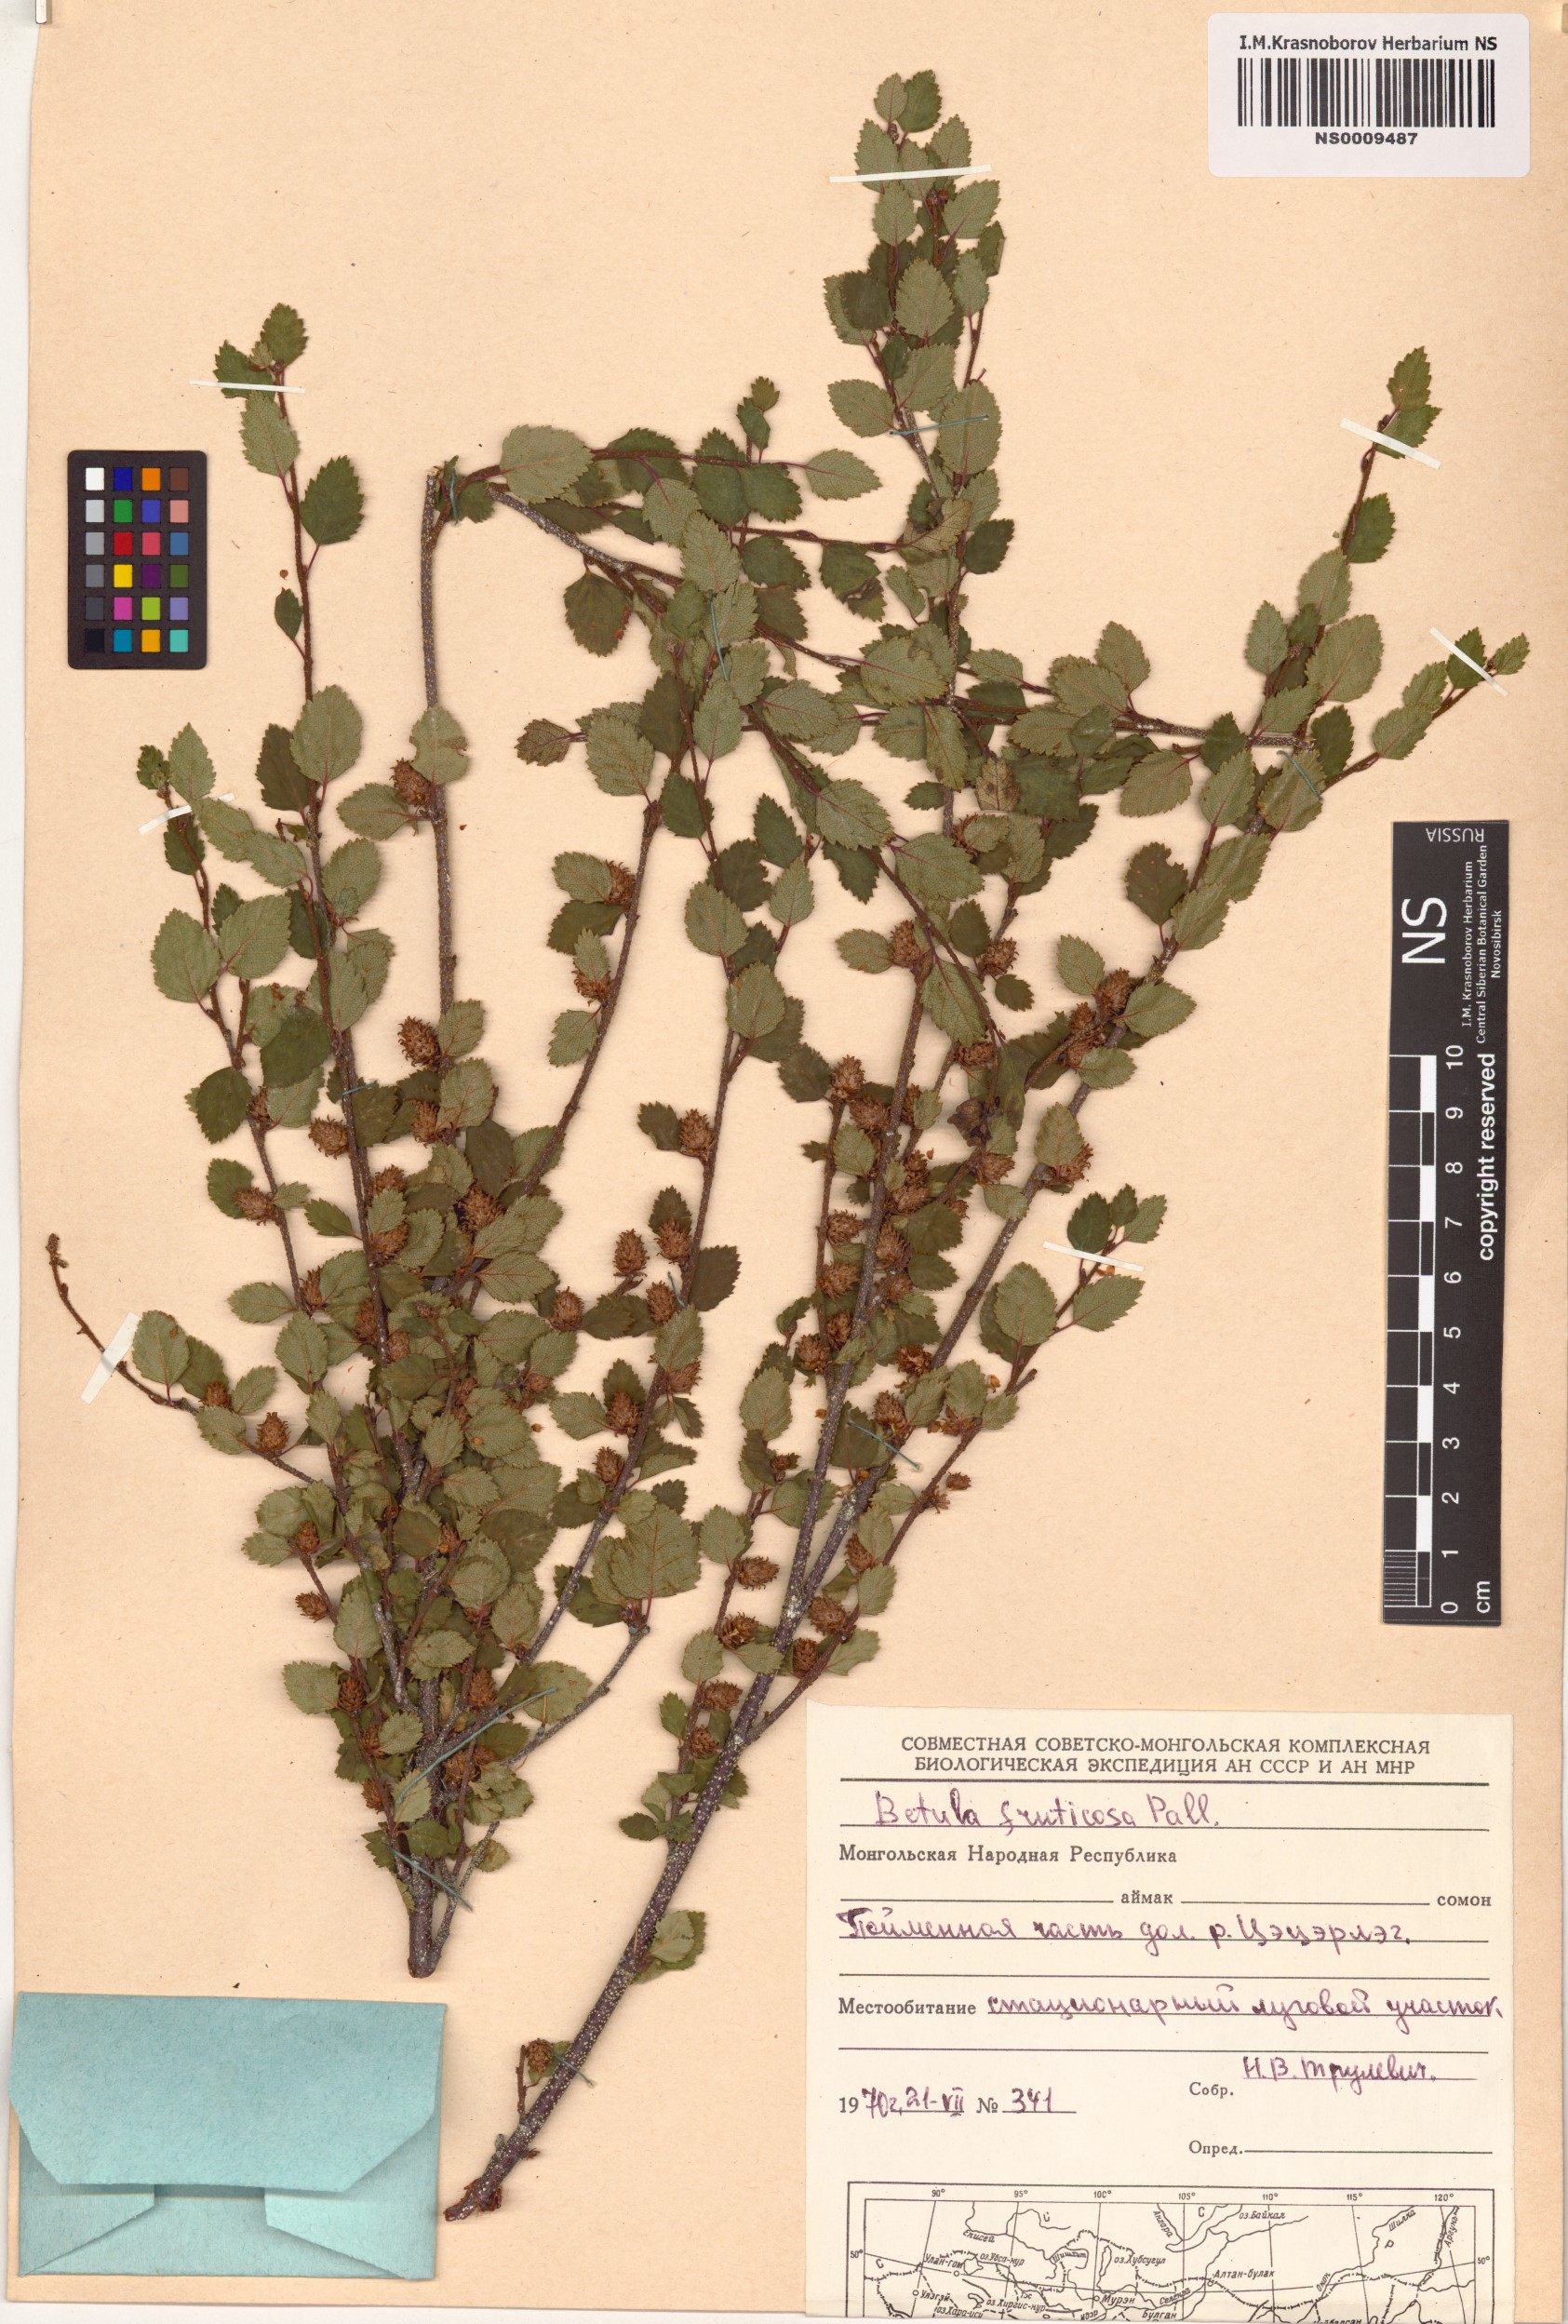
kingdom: Plantae
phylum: Tracheophyta
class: Magnoliopsida
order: Fagales
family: Betulaceae
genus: Betula
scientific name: Betula fruticosa
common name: Japanese bog birch
